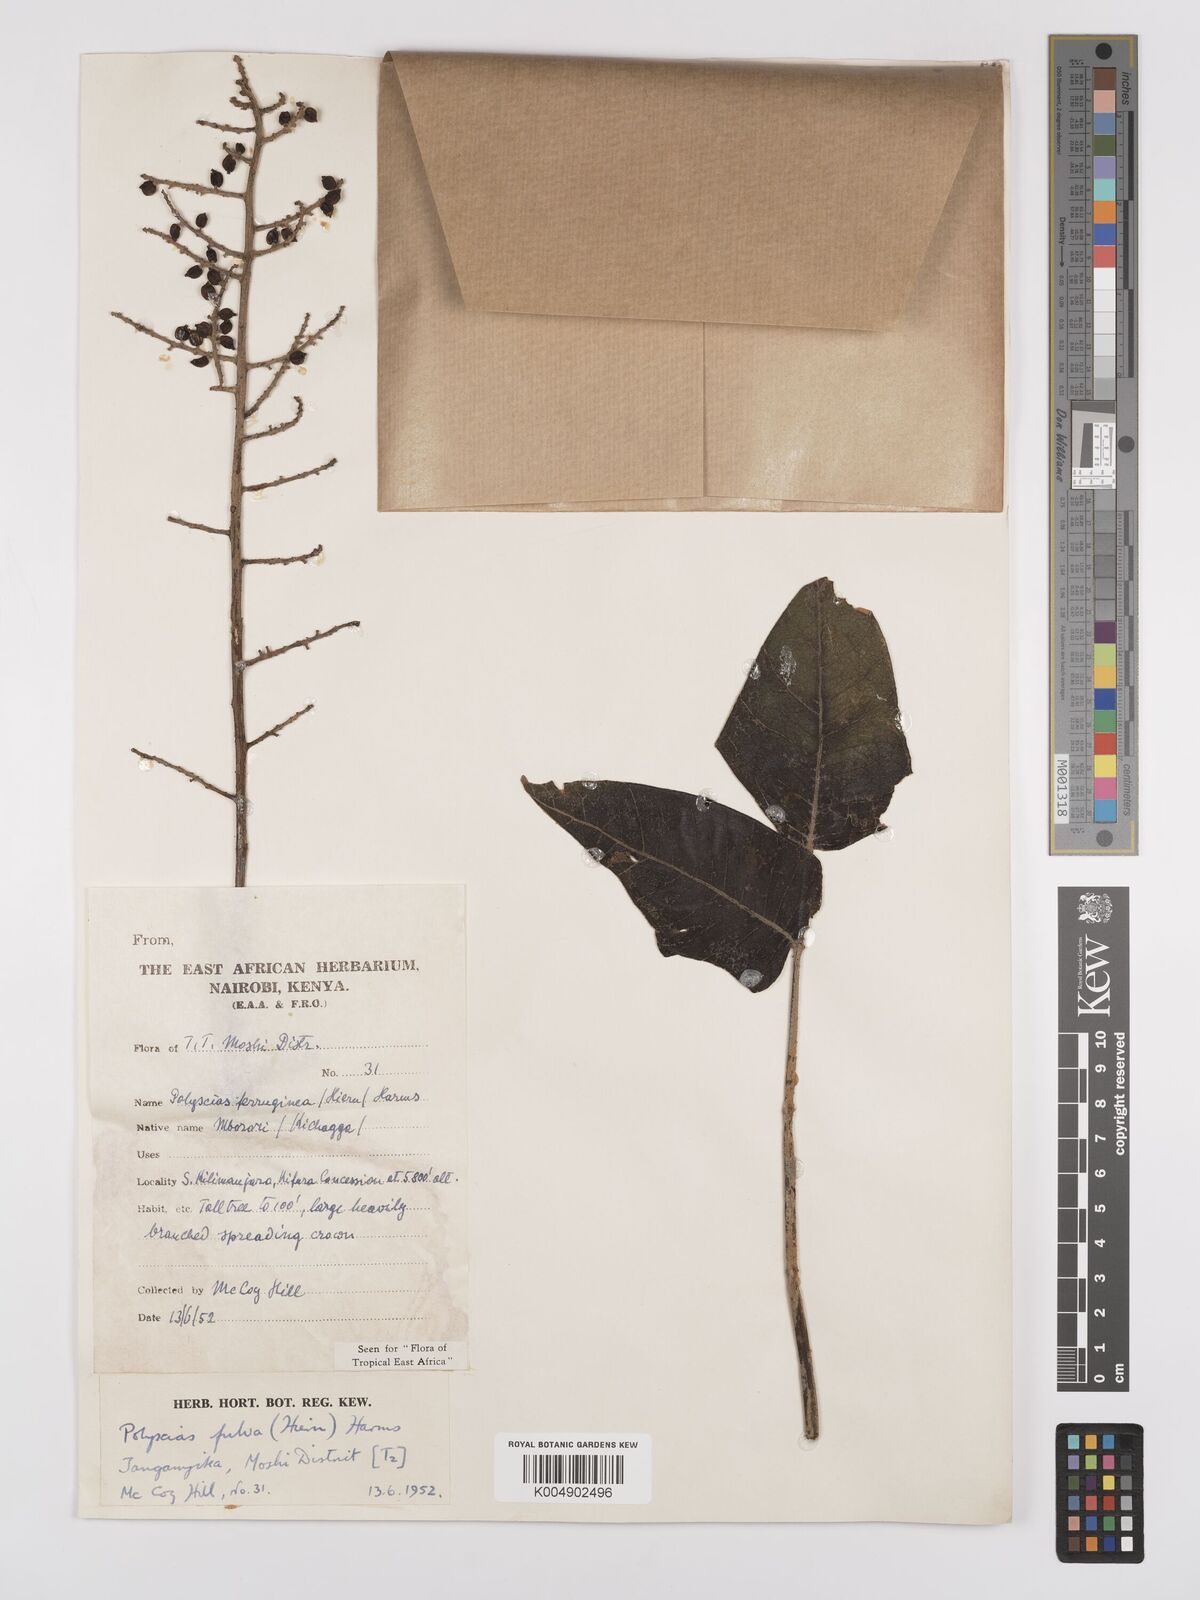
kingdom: Plantae
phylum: Tracheophyta
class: Magnoliopsida
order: Apiales
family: Araliaceae
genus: Polyscias
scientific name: Polyscias fulva
